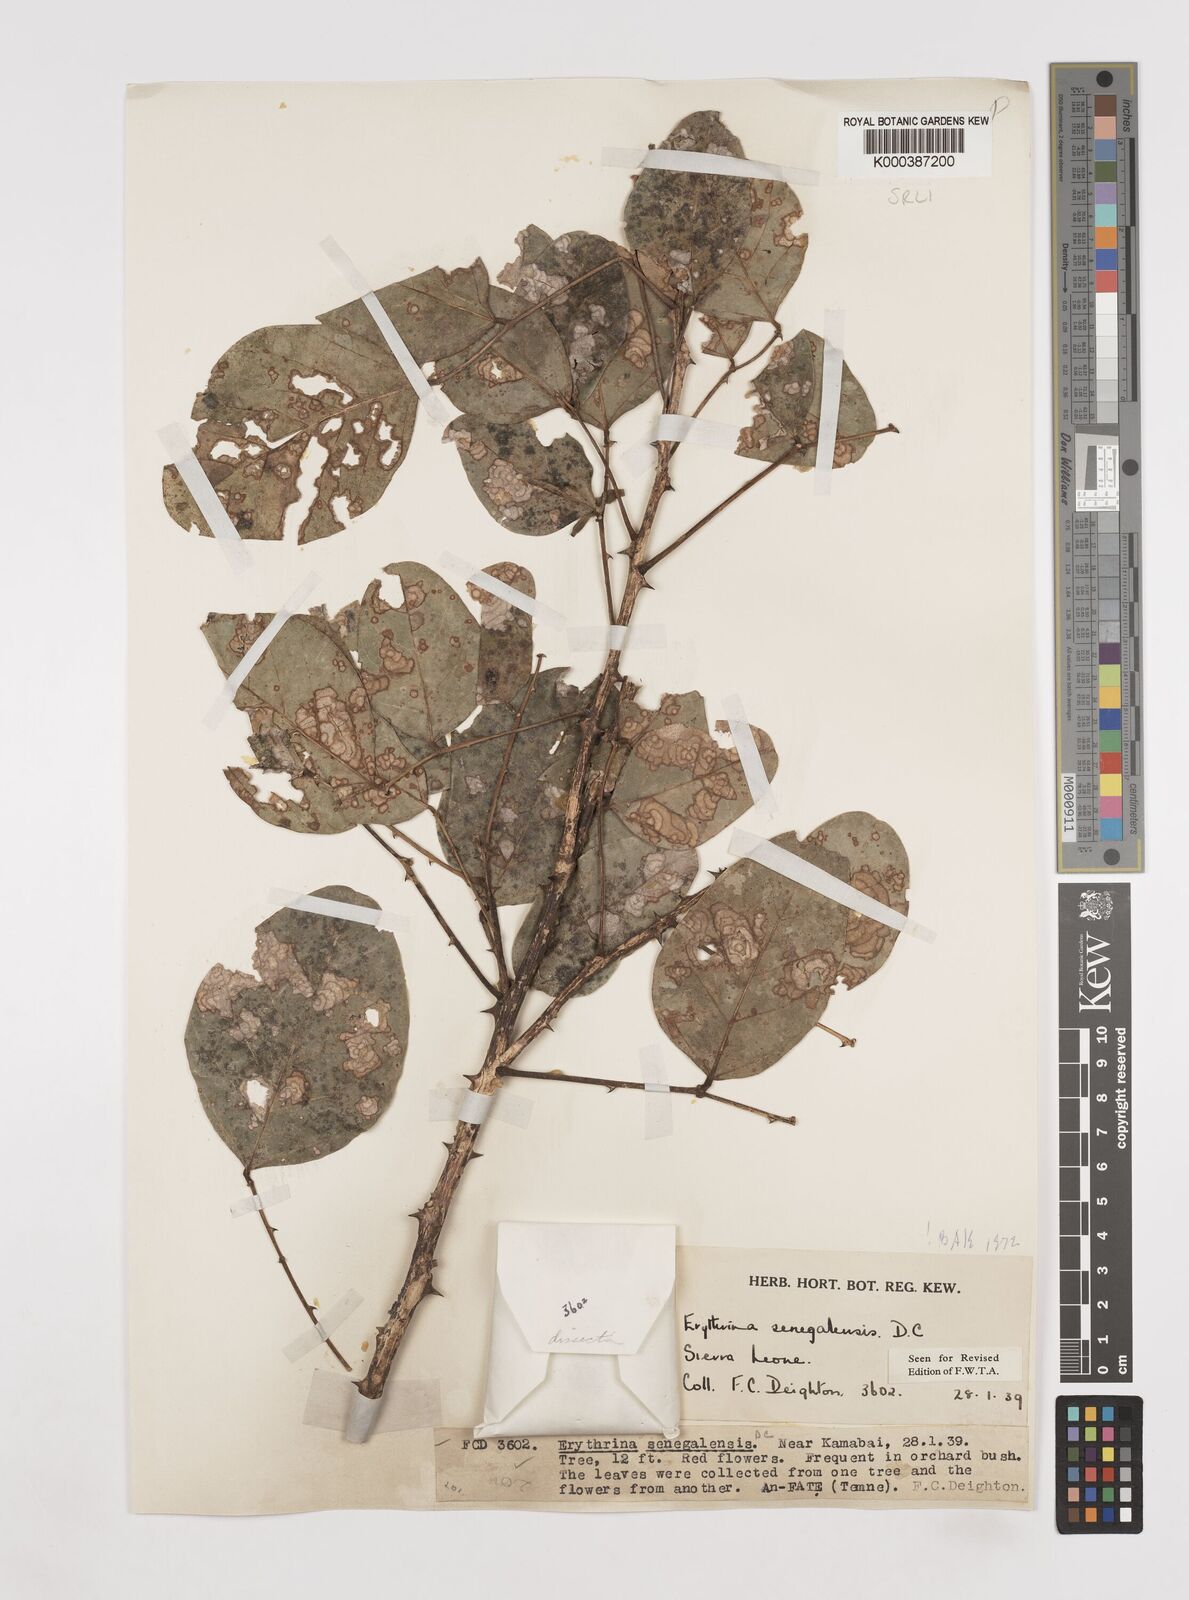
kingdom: Plantae
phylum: Tracheophyta
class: Magnoliopsida
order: Fabales
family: Fabaceae
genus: Erythrina
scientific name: Erythrina senegalensis
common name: Senegal coraltree
